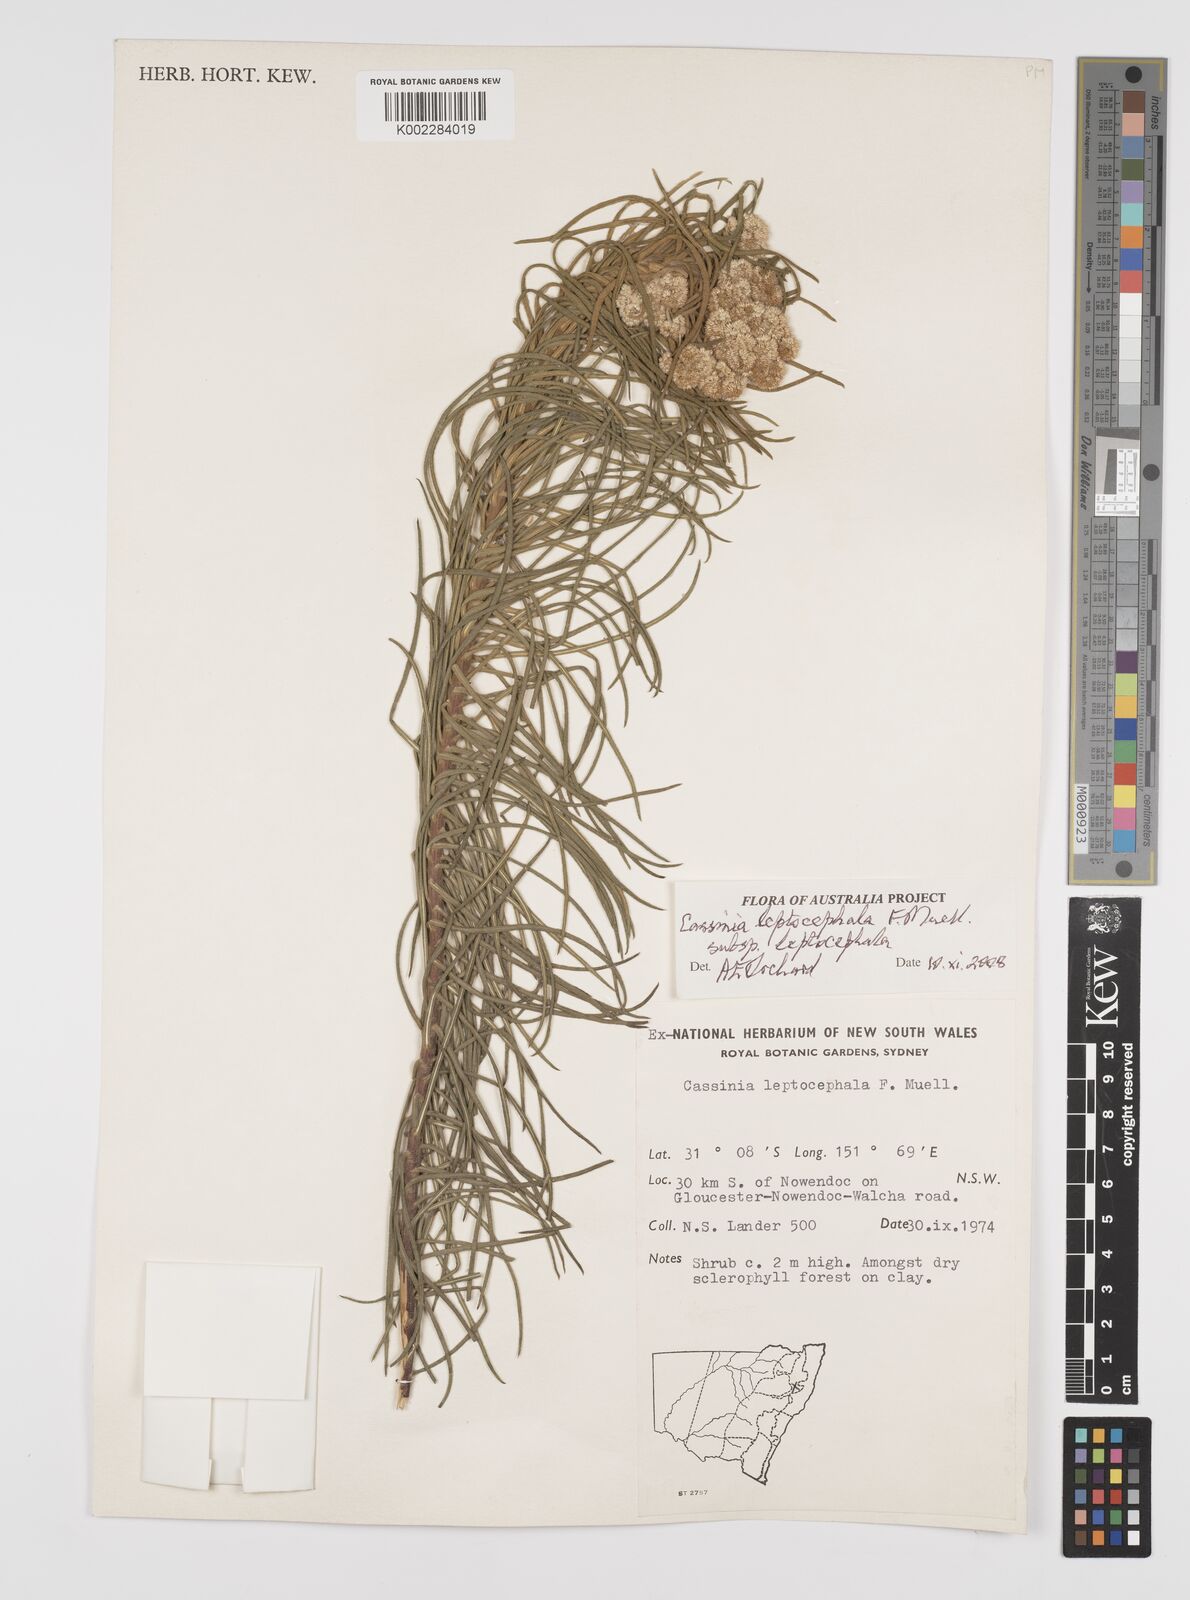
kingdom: Plantae
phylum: Tracheophyta
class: Magnoliopsida
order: Asterales
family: Asteraceae
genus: Cassinia
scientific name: Cassinia leptocephala
